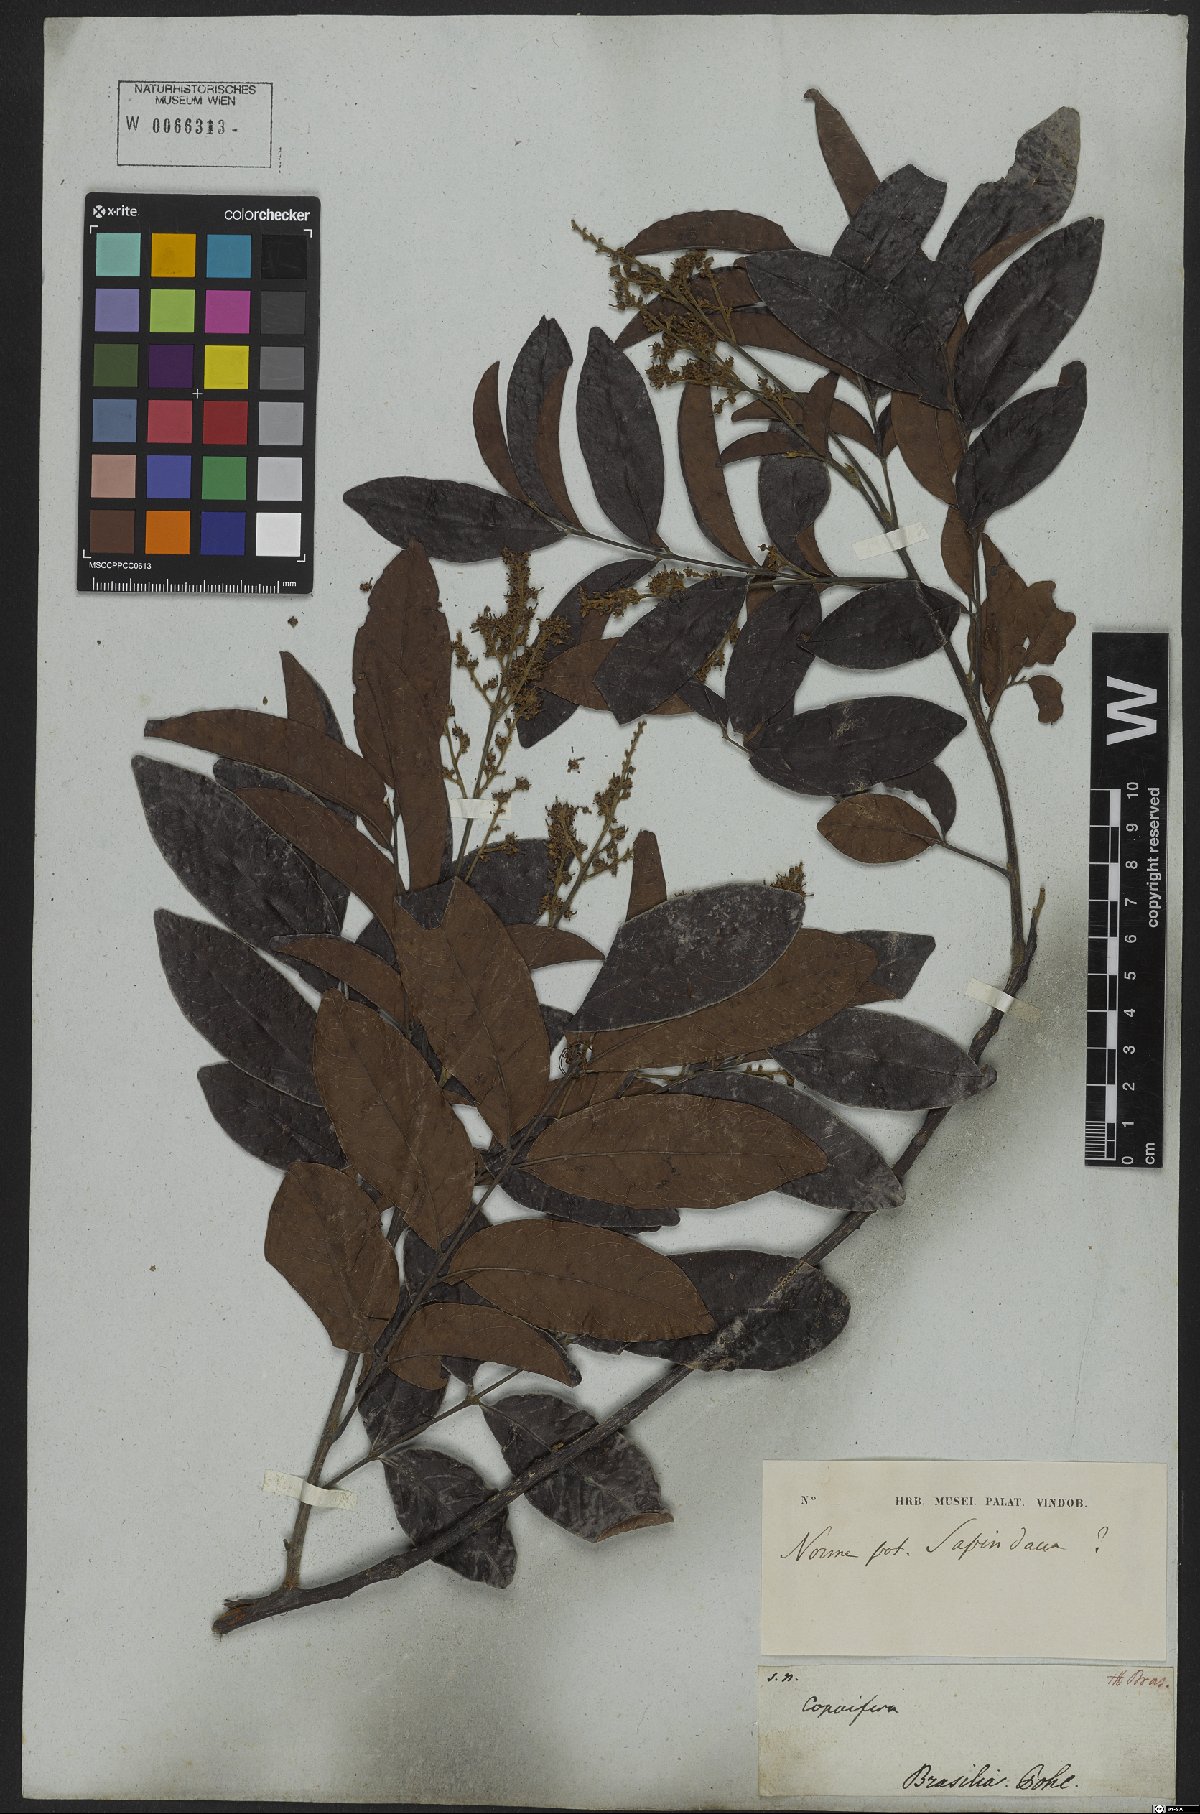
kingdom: Plantae
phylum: Tracheophyta
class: Magnoliopsida
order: Fabales
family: Fabaceae
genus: Copaifera
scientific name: Copaifera
